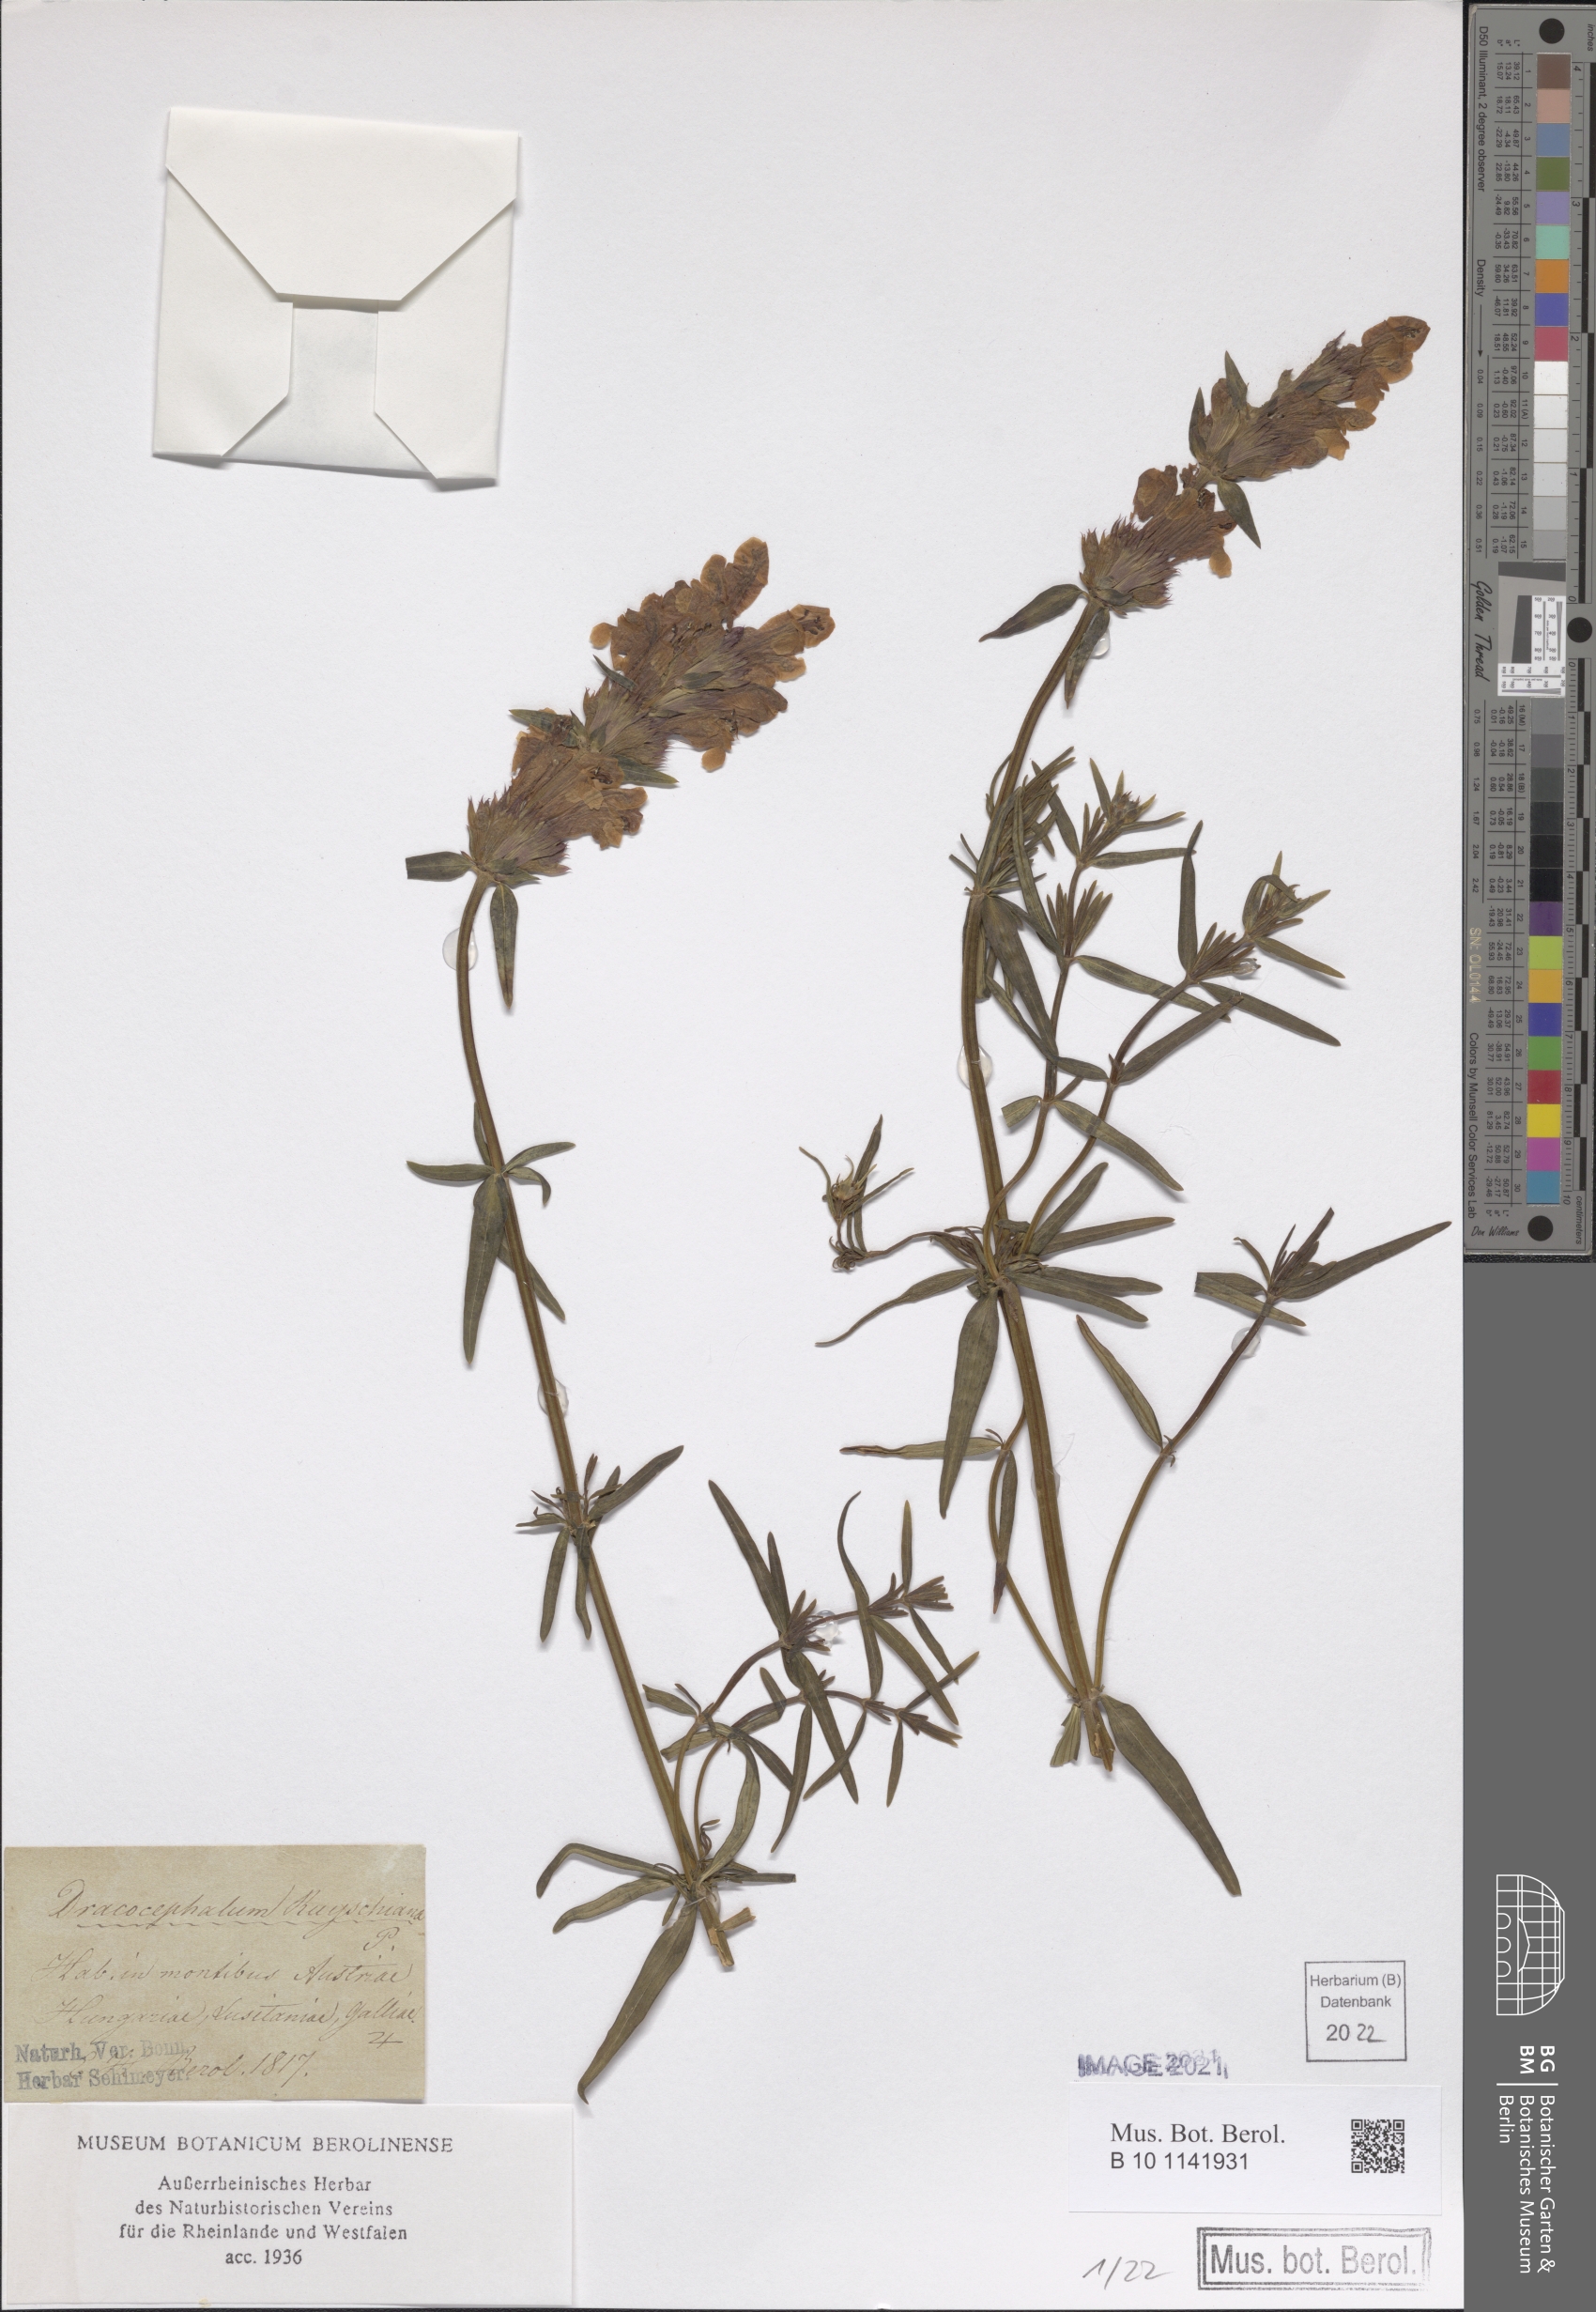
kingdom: Plantae
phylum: Tracheophyta
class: Magnoliopsida
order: Lamiales
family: Lamiaceae
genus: Dracocephalum
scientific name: Dracocephalum ruyschiana
